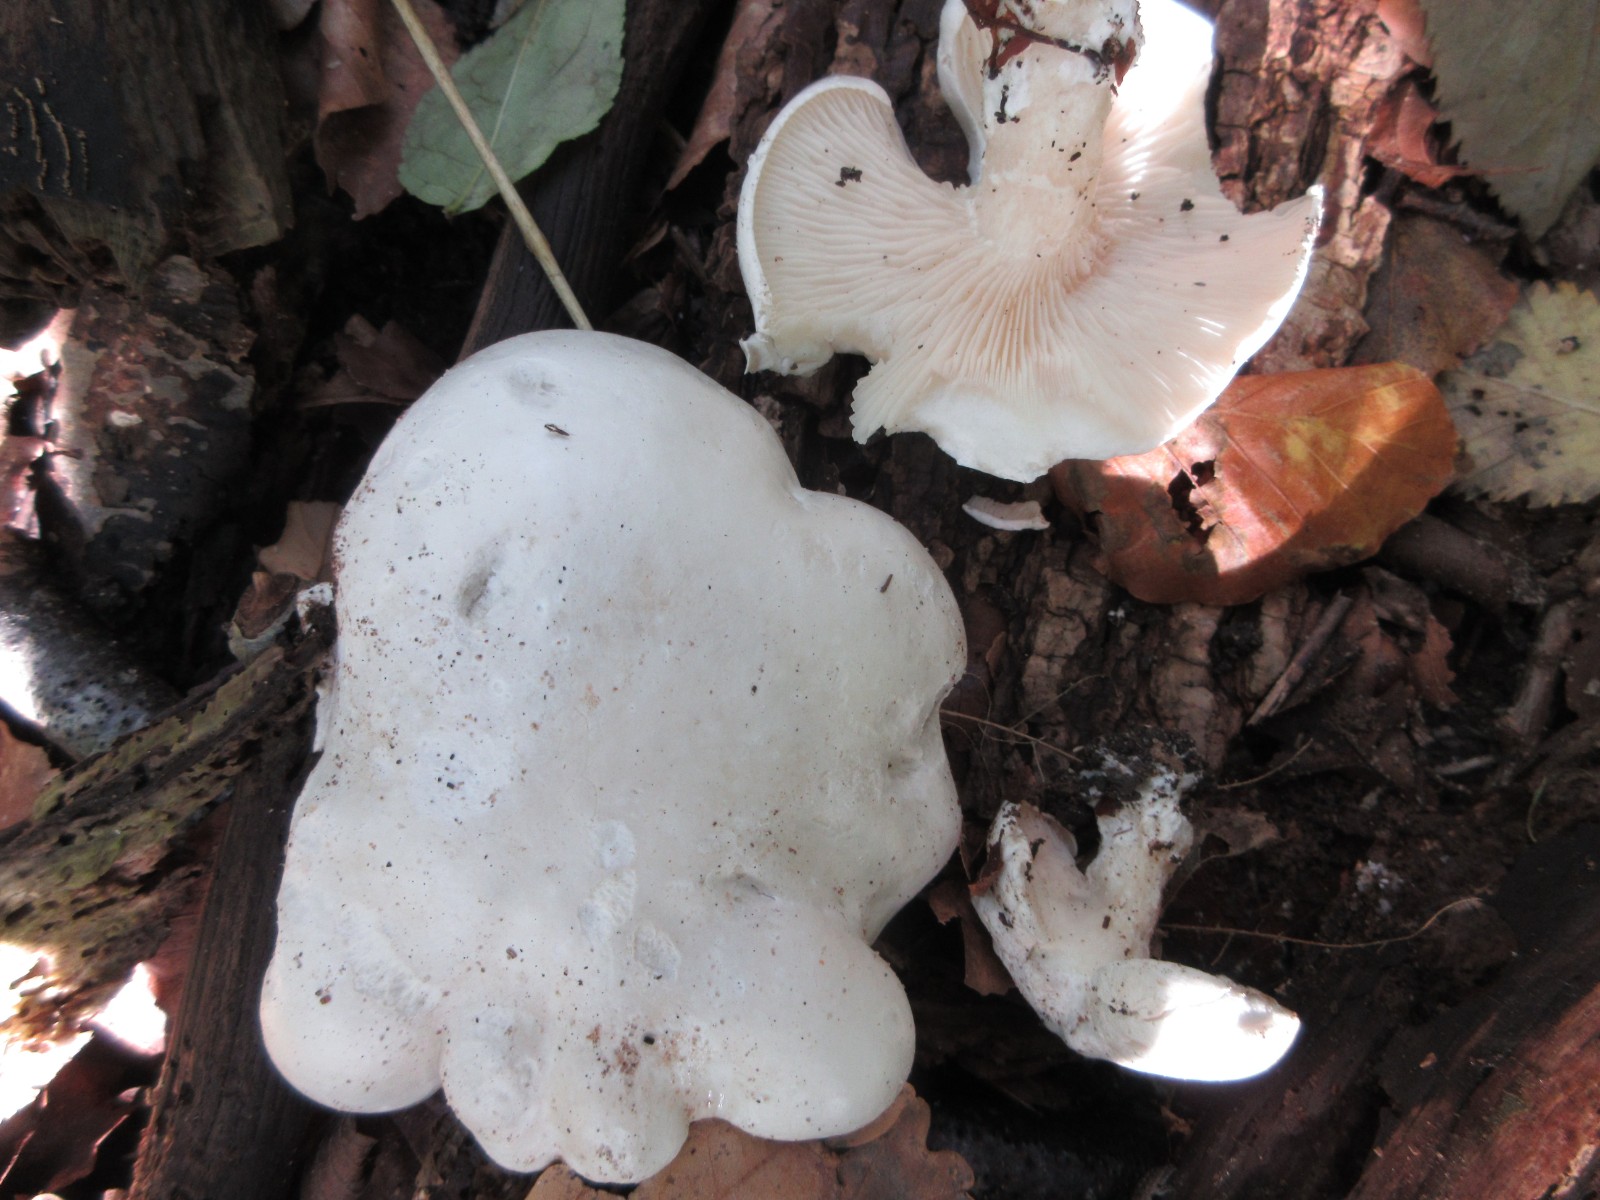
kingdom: Fungi
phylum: Basidiomycota
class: Agaricomycetes
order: Agaricales
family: Entolomataceae
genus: Clitopilus
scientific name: Clitopilus prunulus
